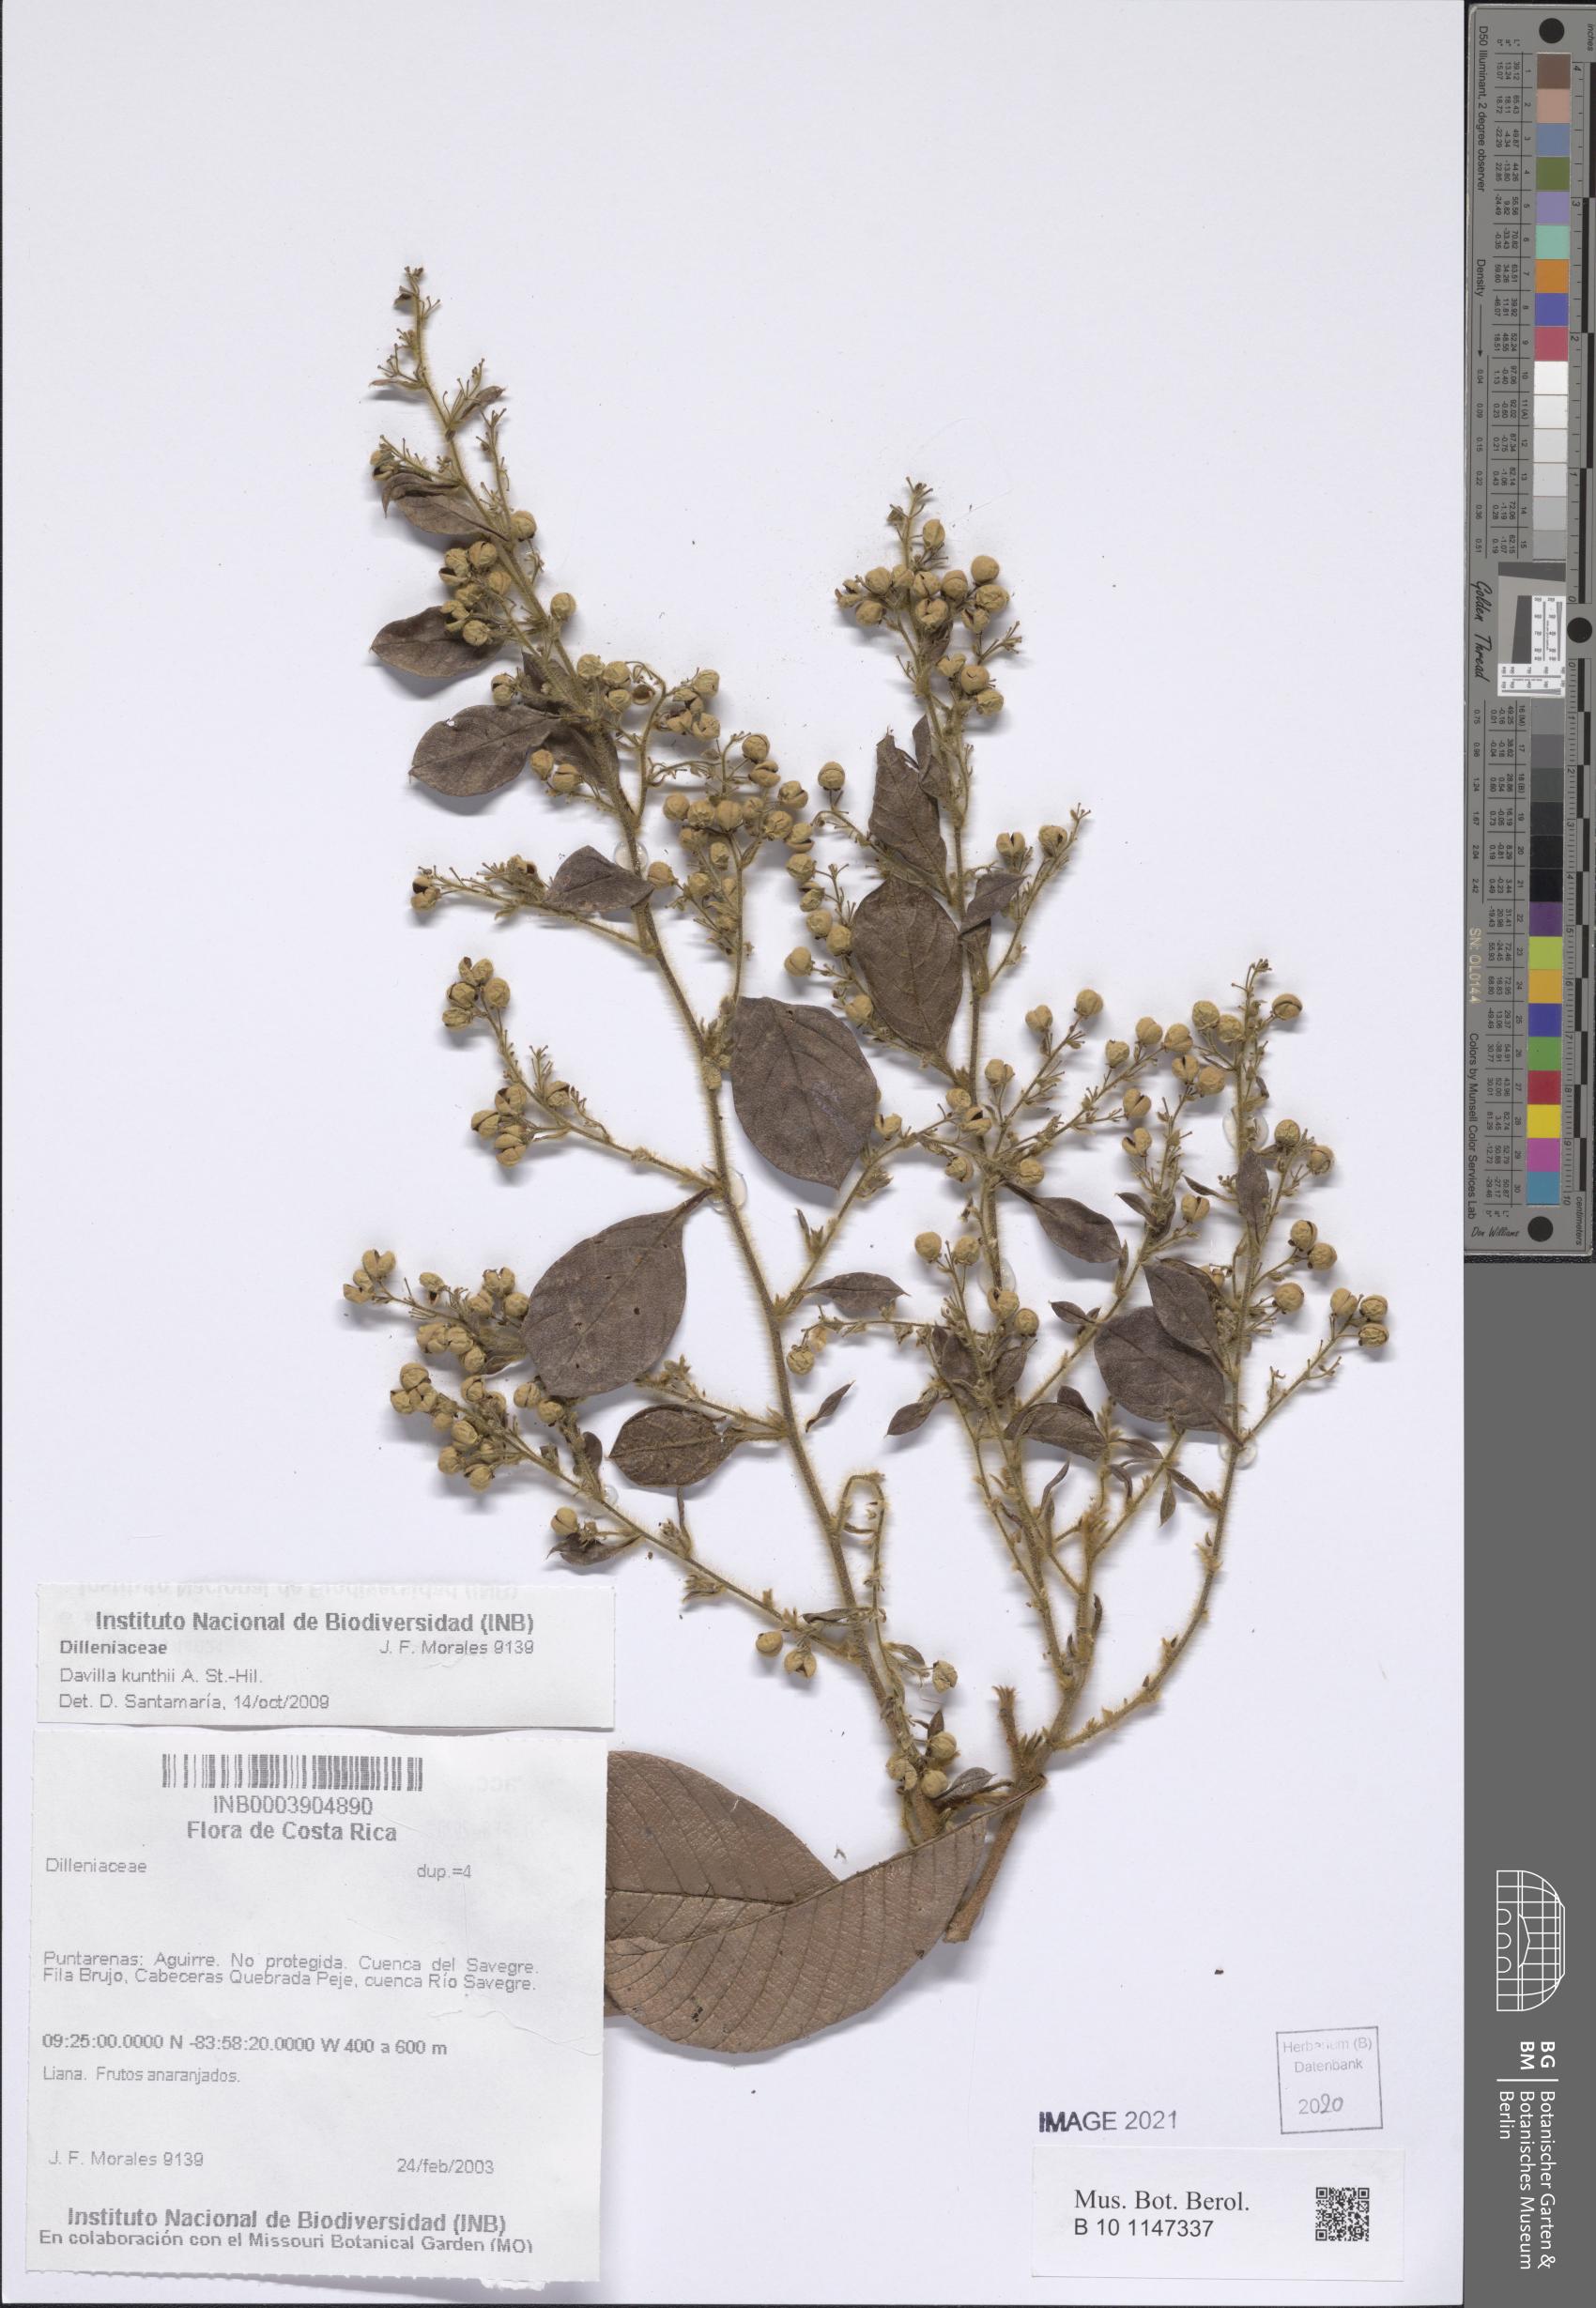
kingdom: Plantae
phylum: Tracheophyta
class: Magnoliopsida
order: Dilleniales
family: Dilleniaceae
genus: Davilla
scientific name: Davilla kunthii
